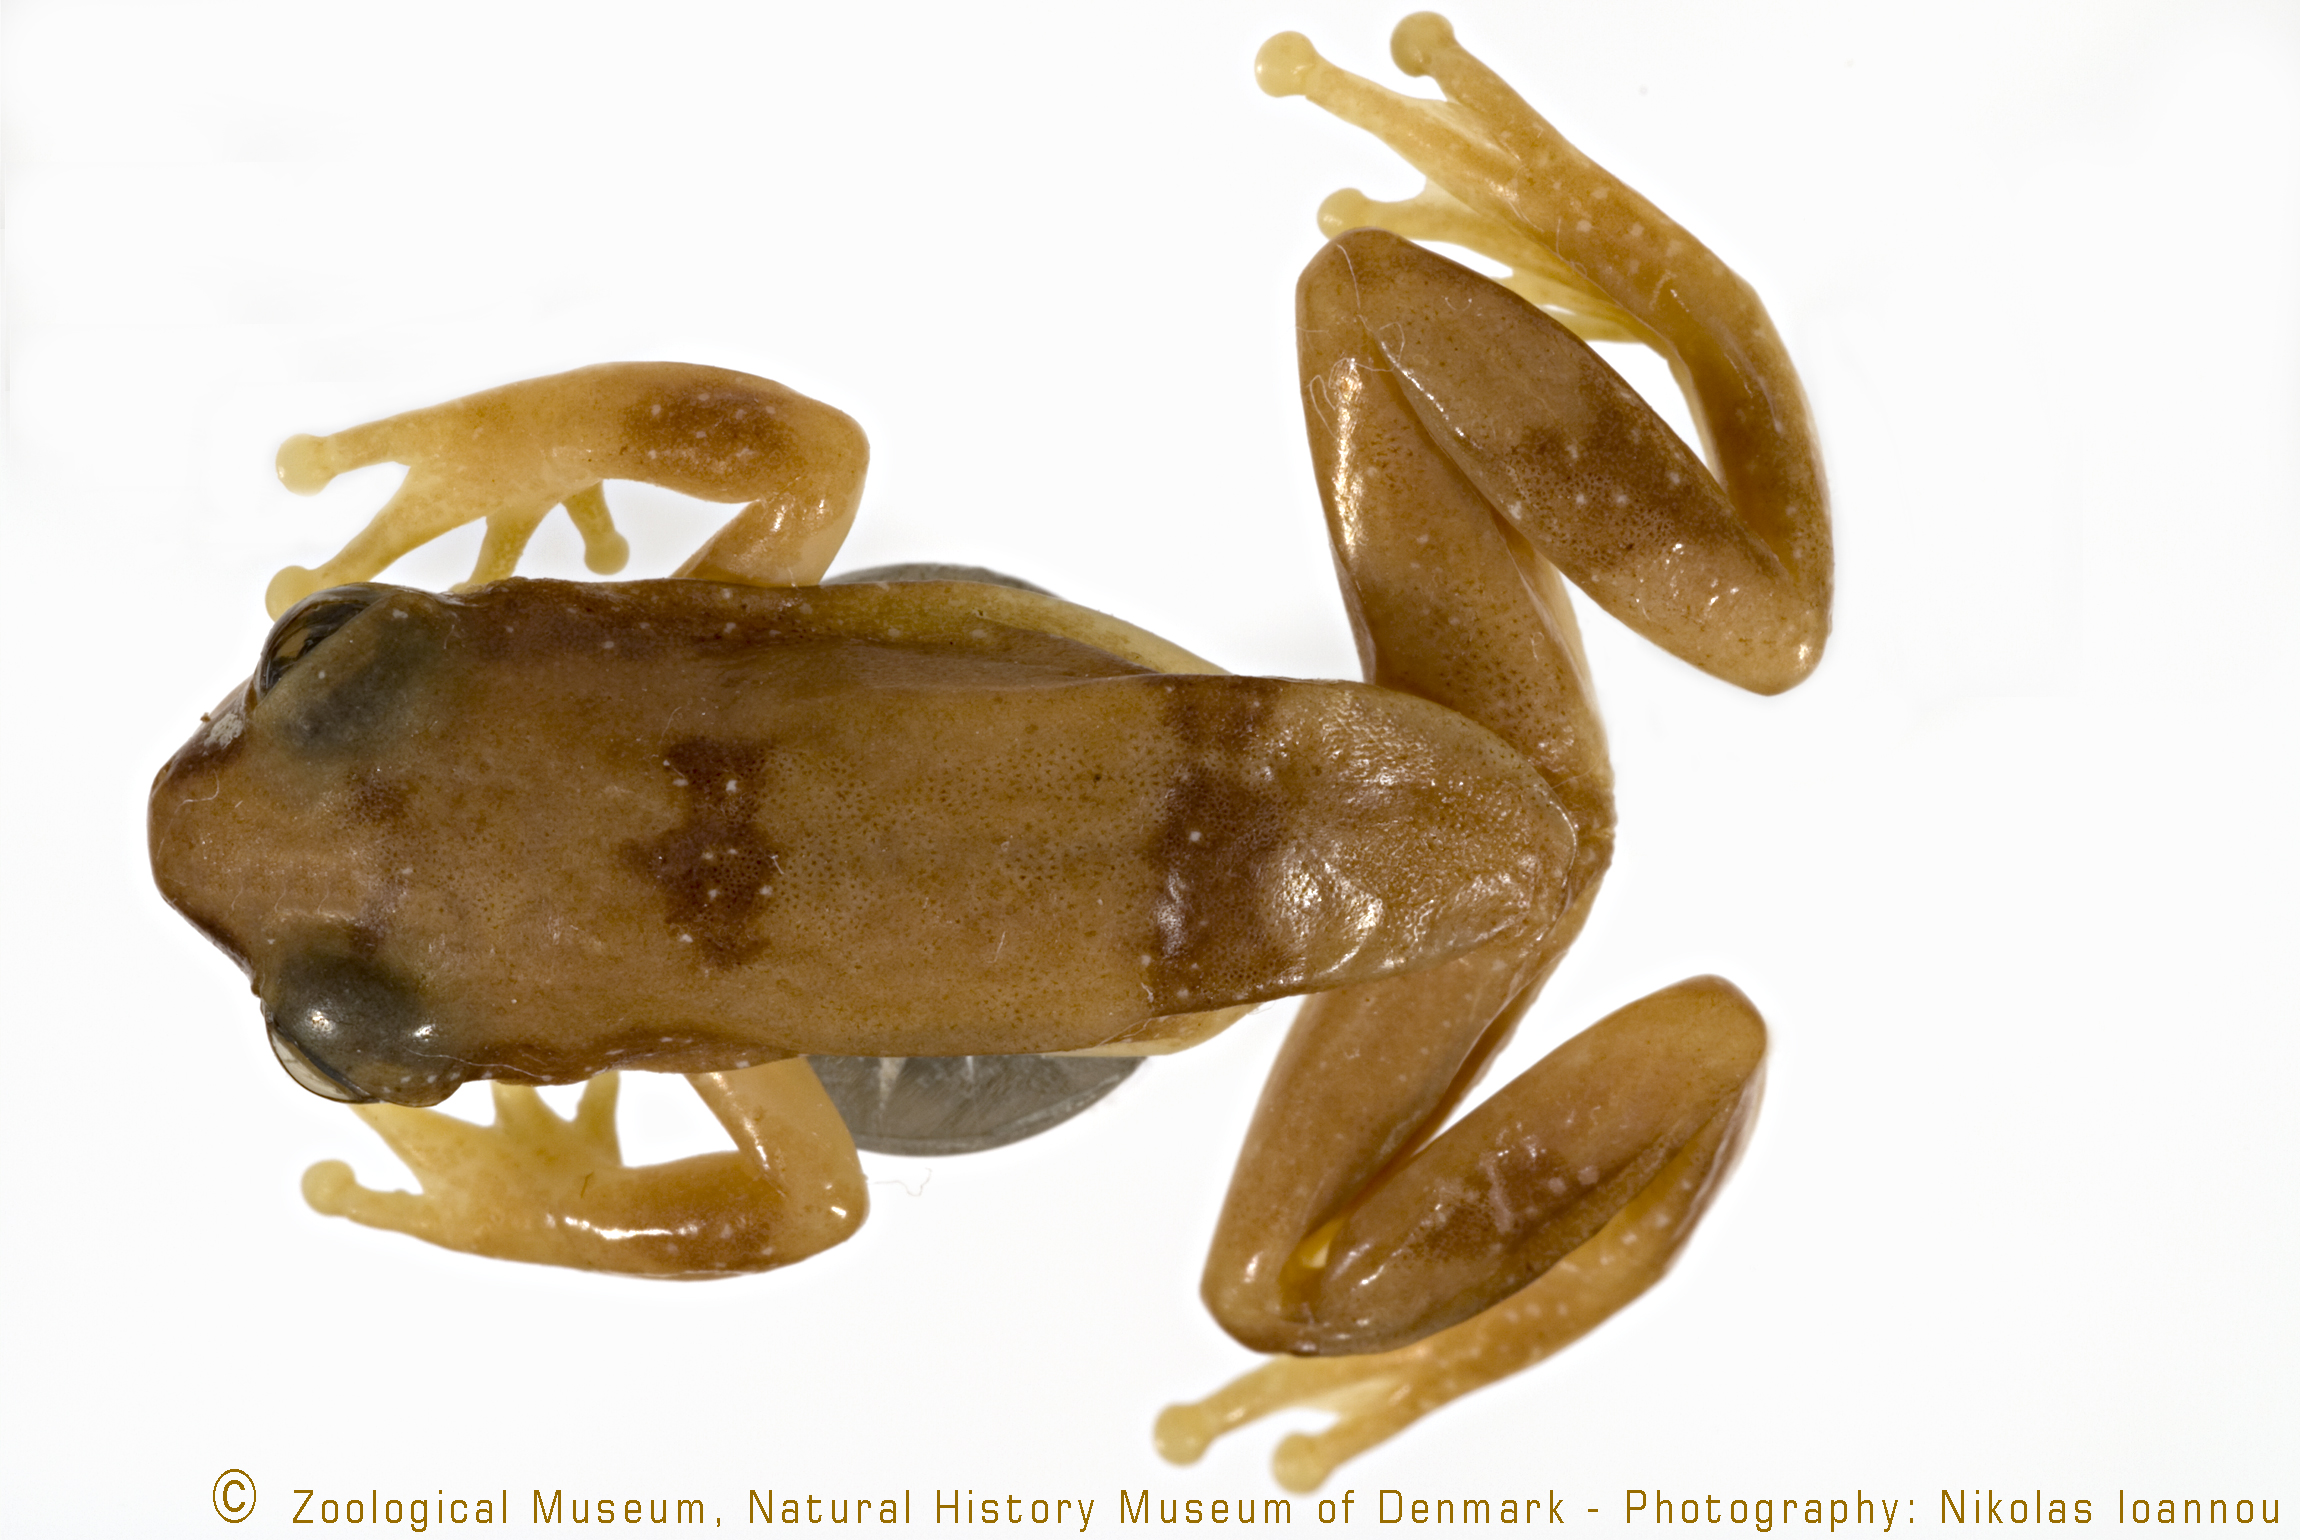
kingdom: Animalia
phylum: Chordata
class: Amphibia
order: Anura
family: Hyperoliidae
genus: Afrixalus
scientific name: Afrixalus sylvaticus
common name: Shimba hills banana frog
